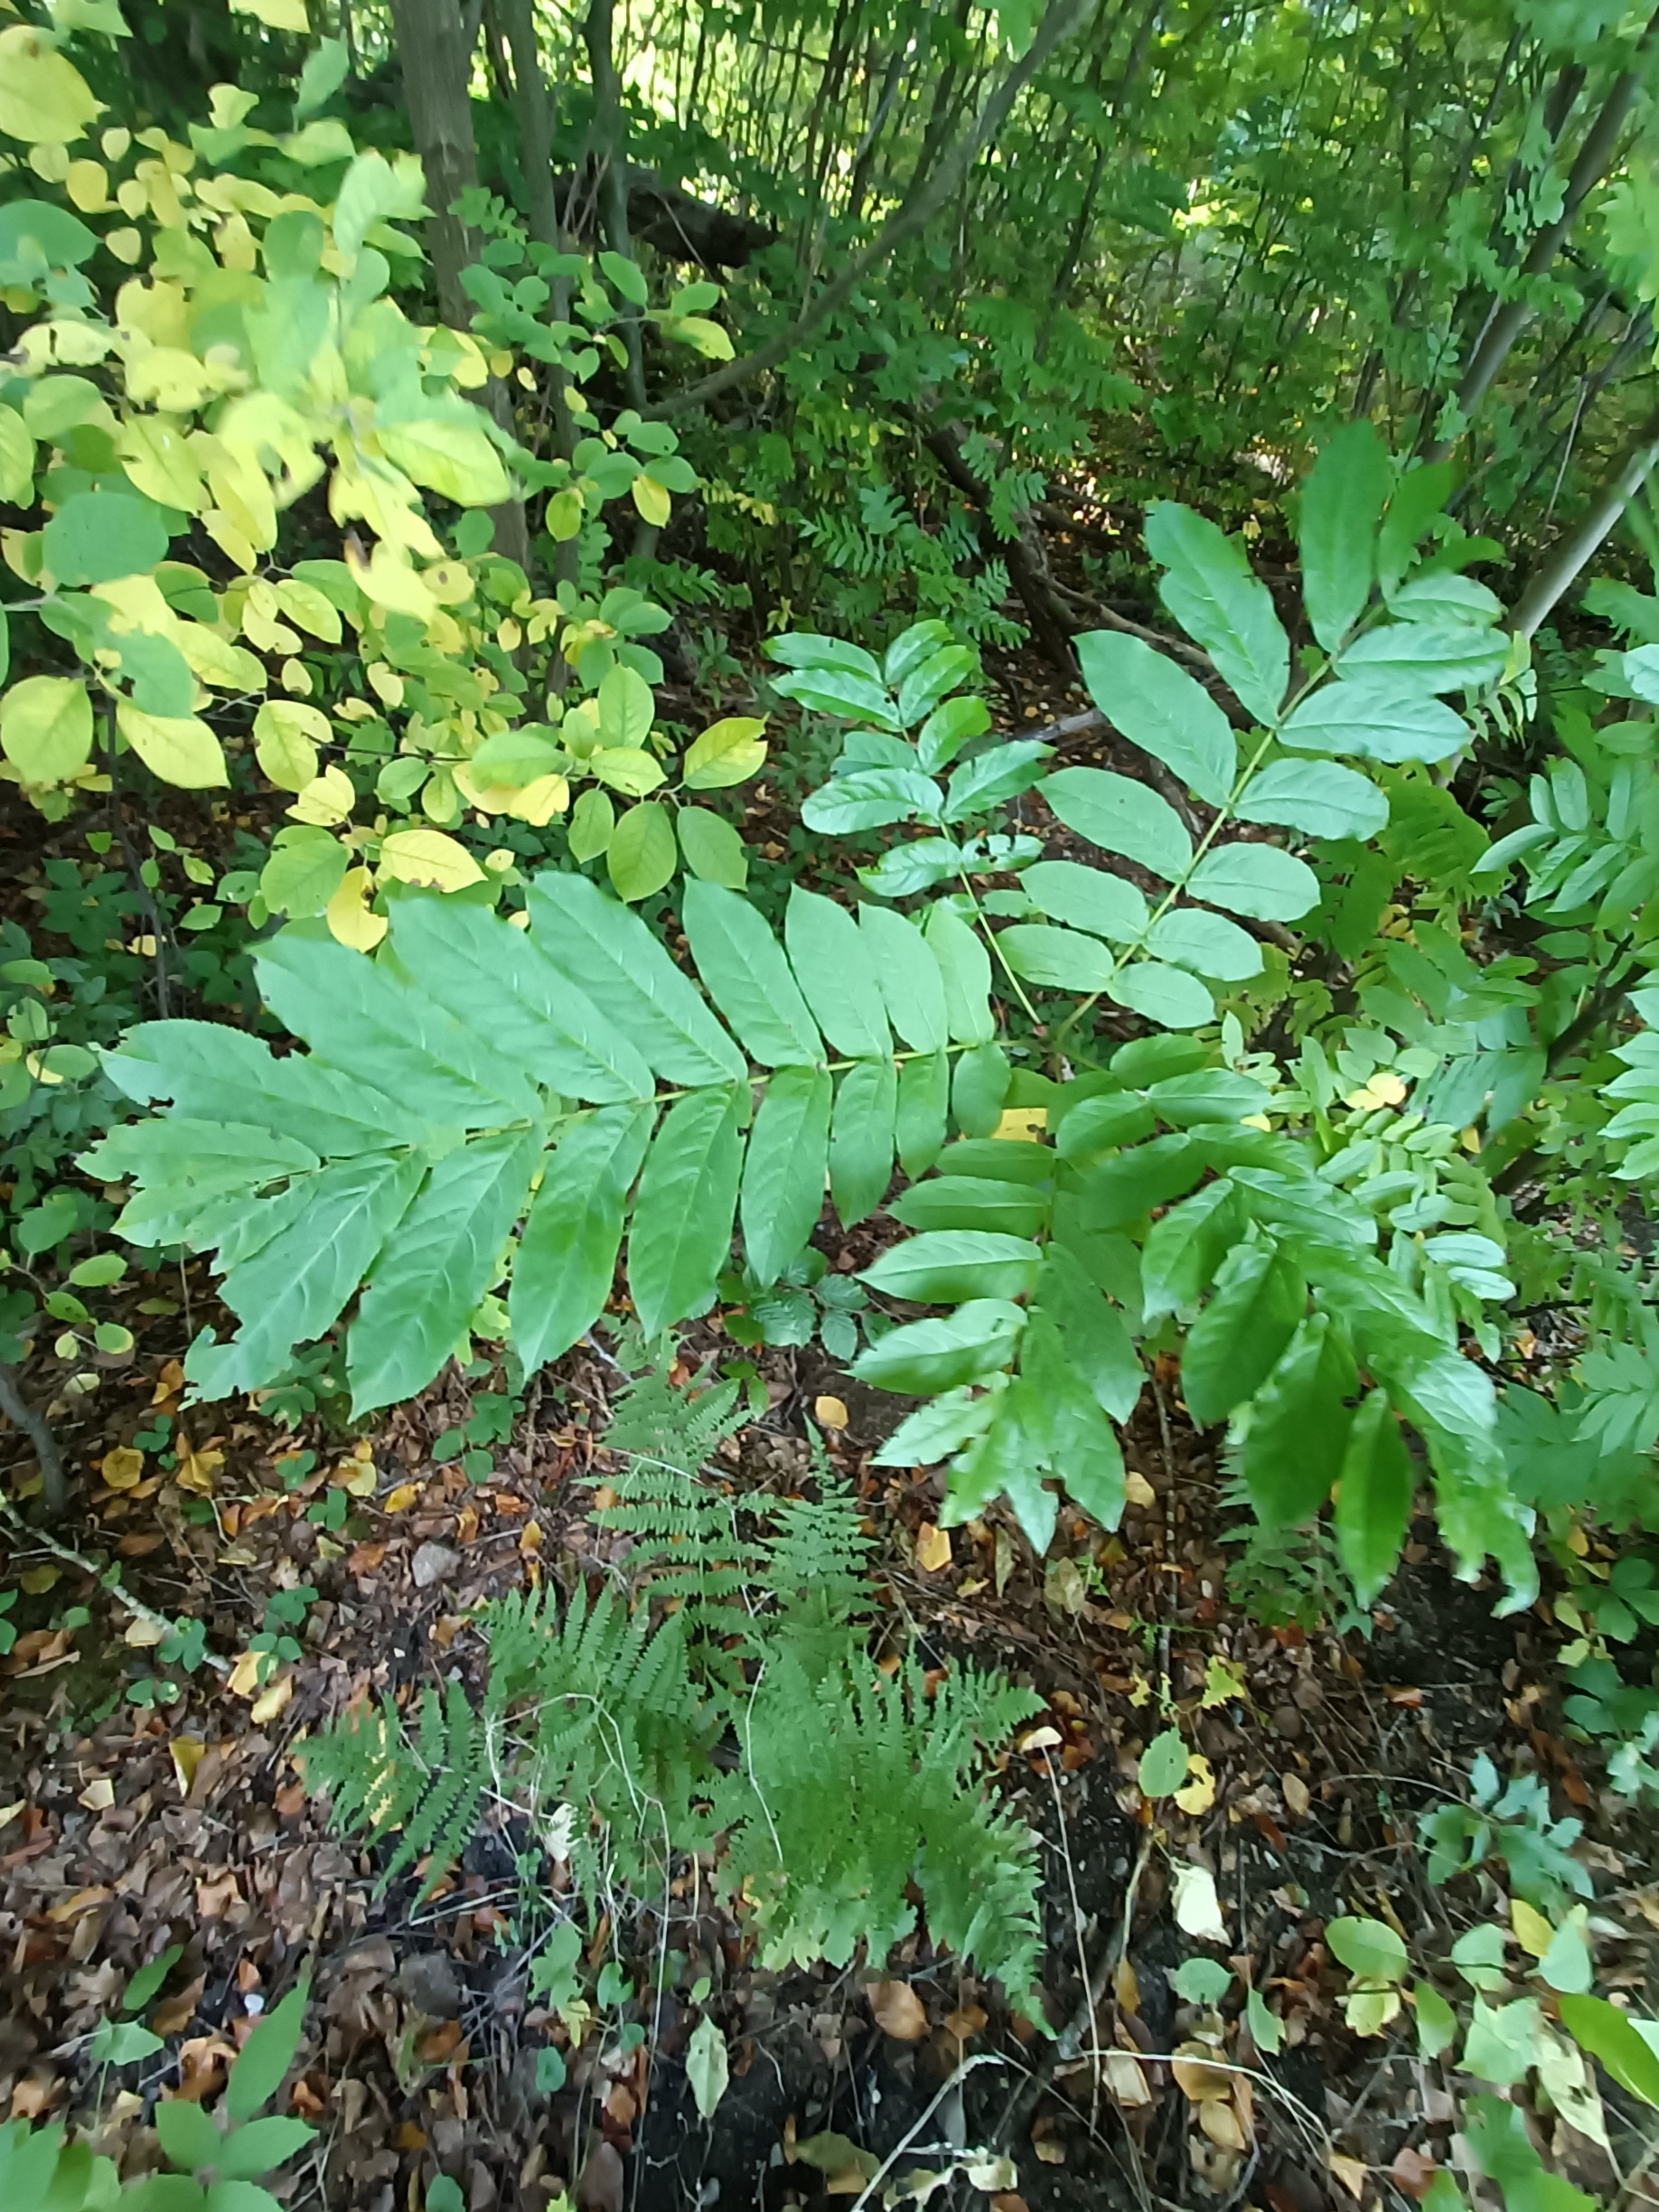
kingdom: Plantae
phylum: Tracheophyta
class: Magnoliopsida
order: Fagales
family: Juglandaceae
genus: Pterocarya
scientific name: Pterocarya fraxinifolia
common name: Kaukasisk vingevalnød
